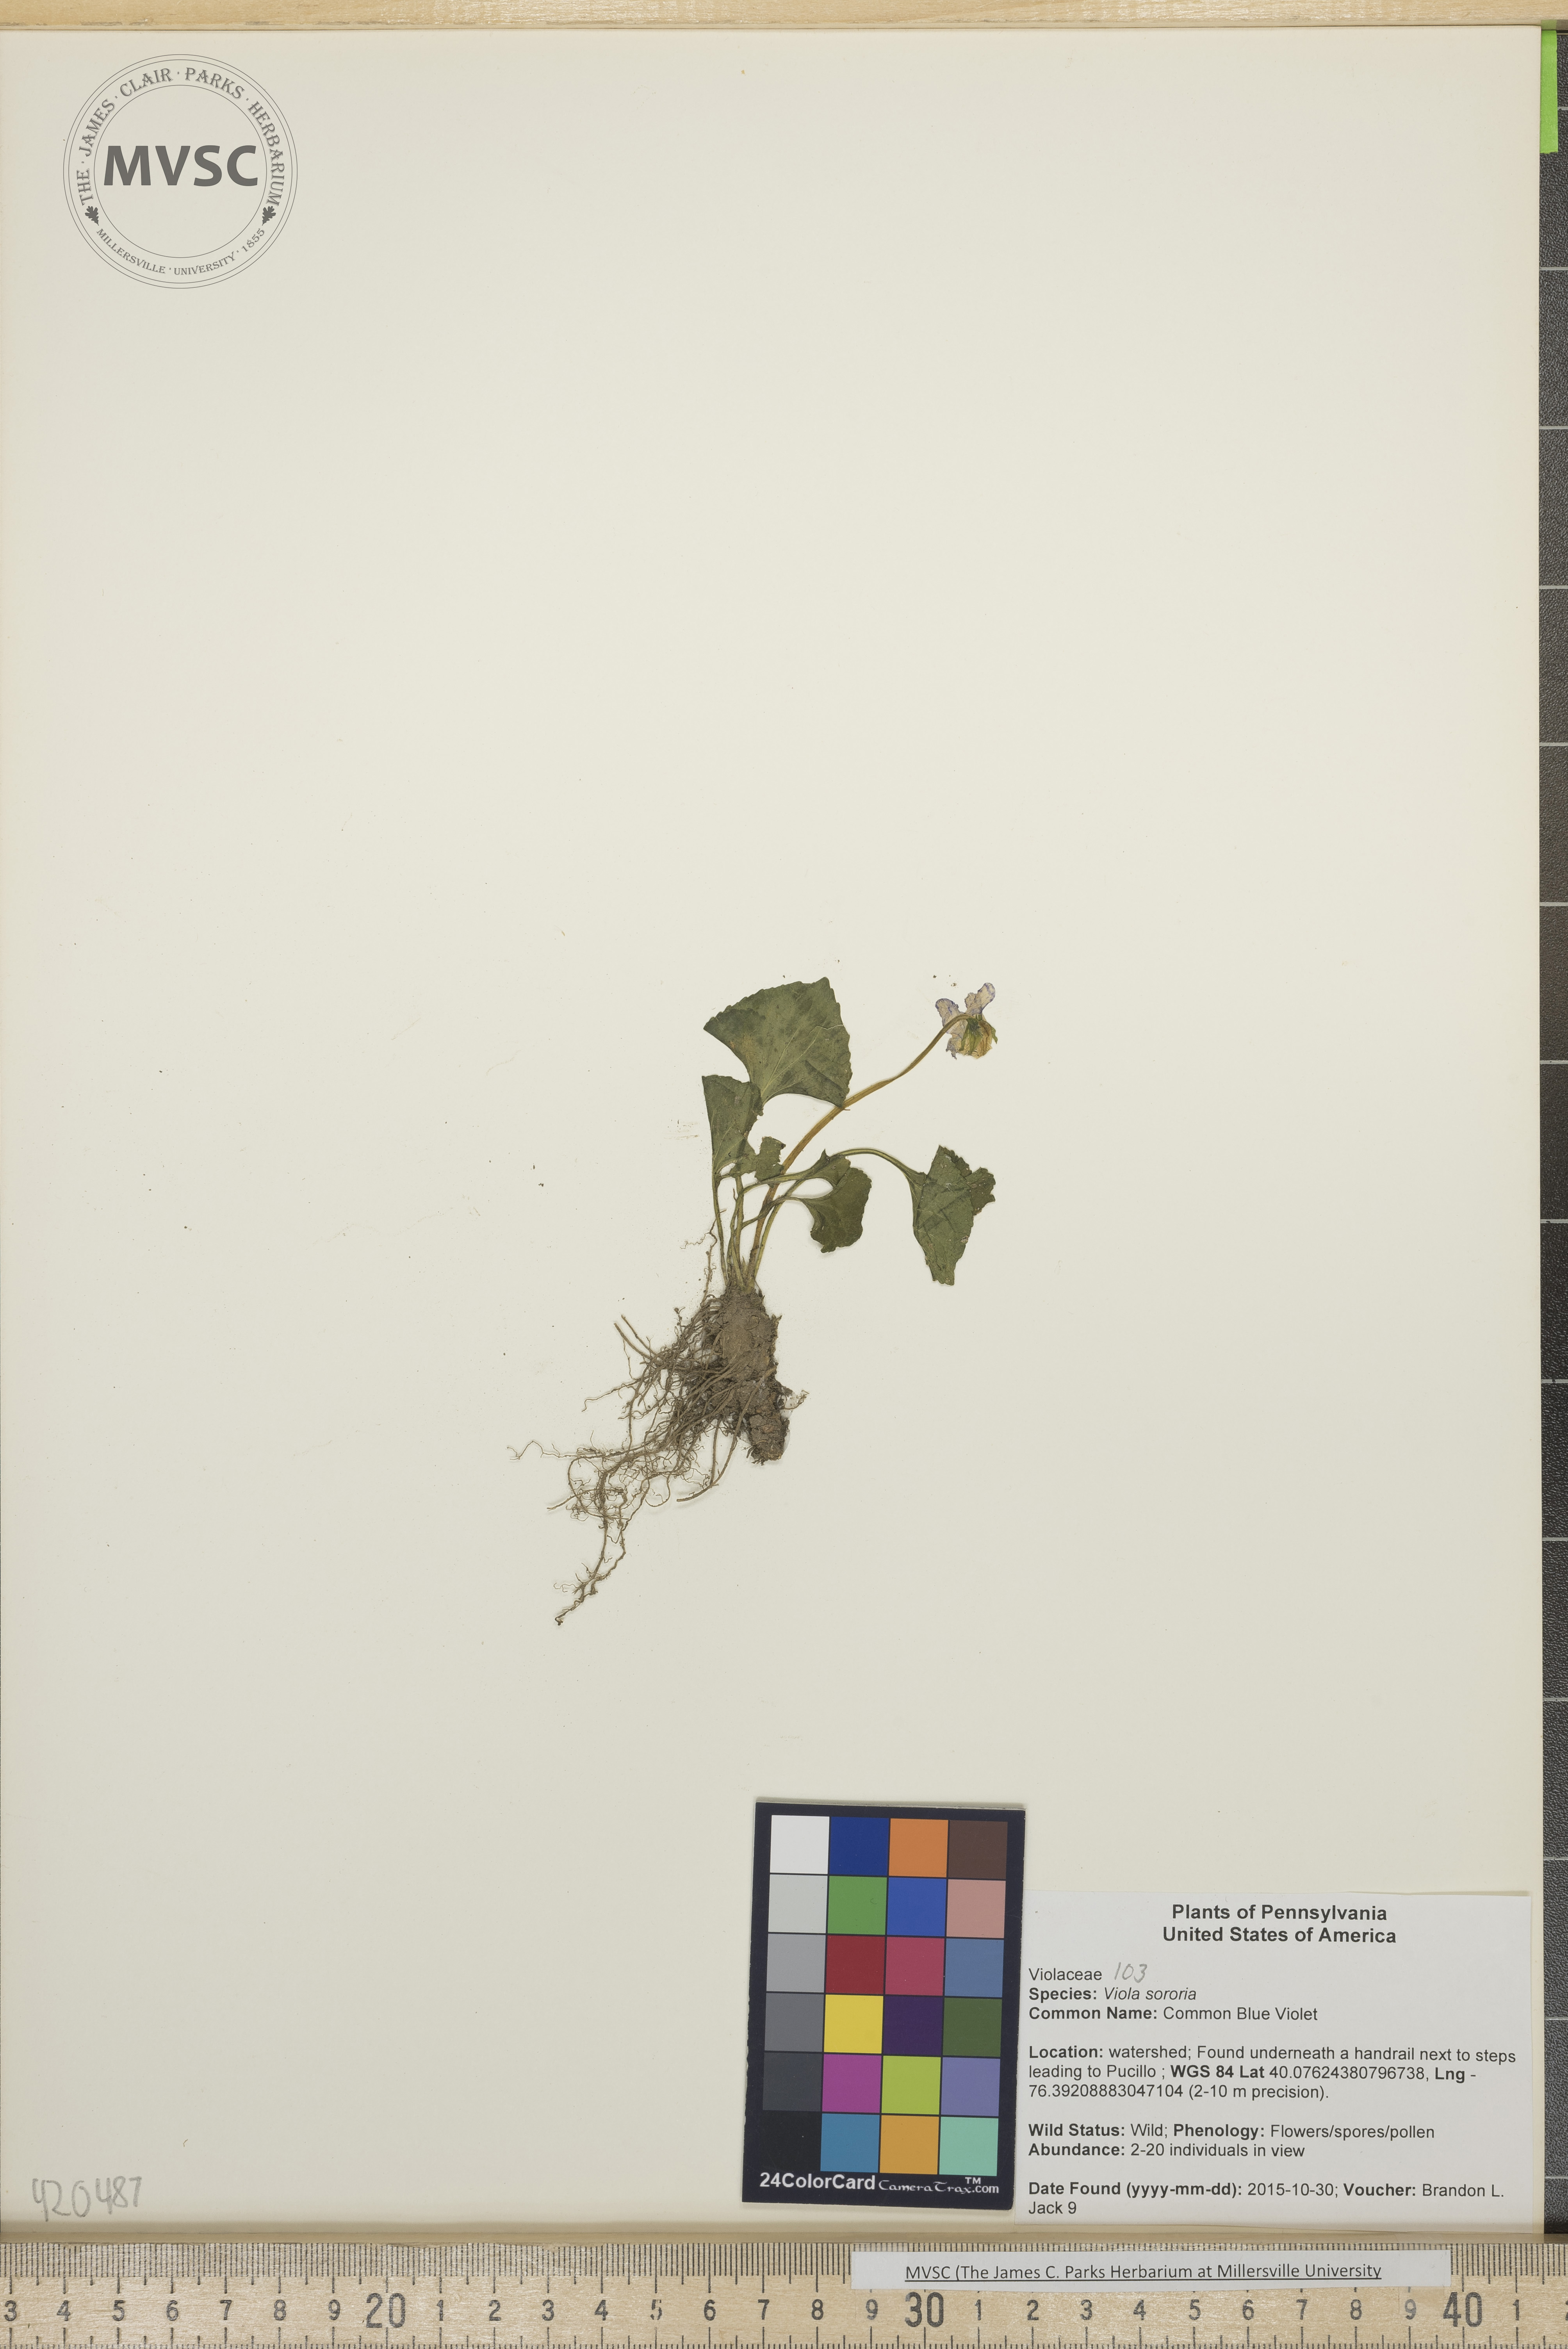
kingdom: Plantae
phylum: Tracheophyta
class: Magnoliopsida
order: Malpighiales
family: Violaceae
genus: Viola
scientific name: Viola sororia
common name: Common Blue Violet
